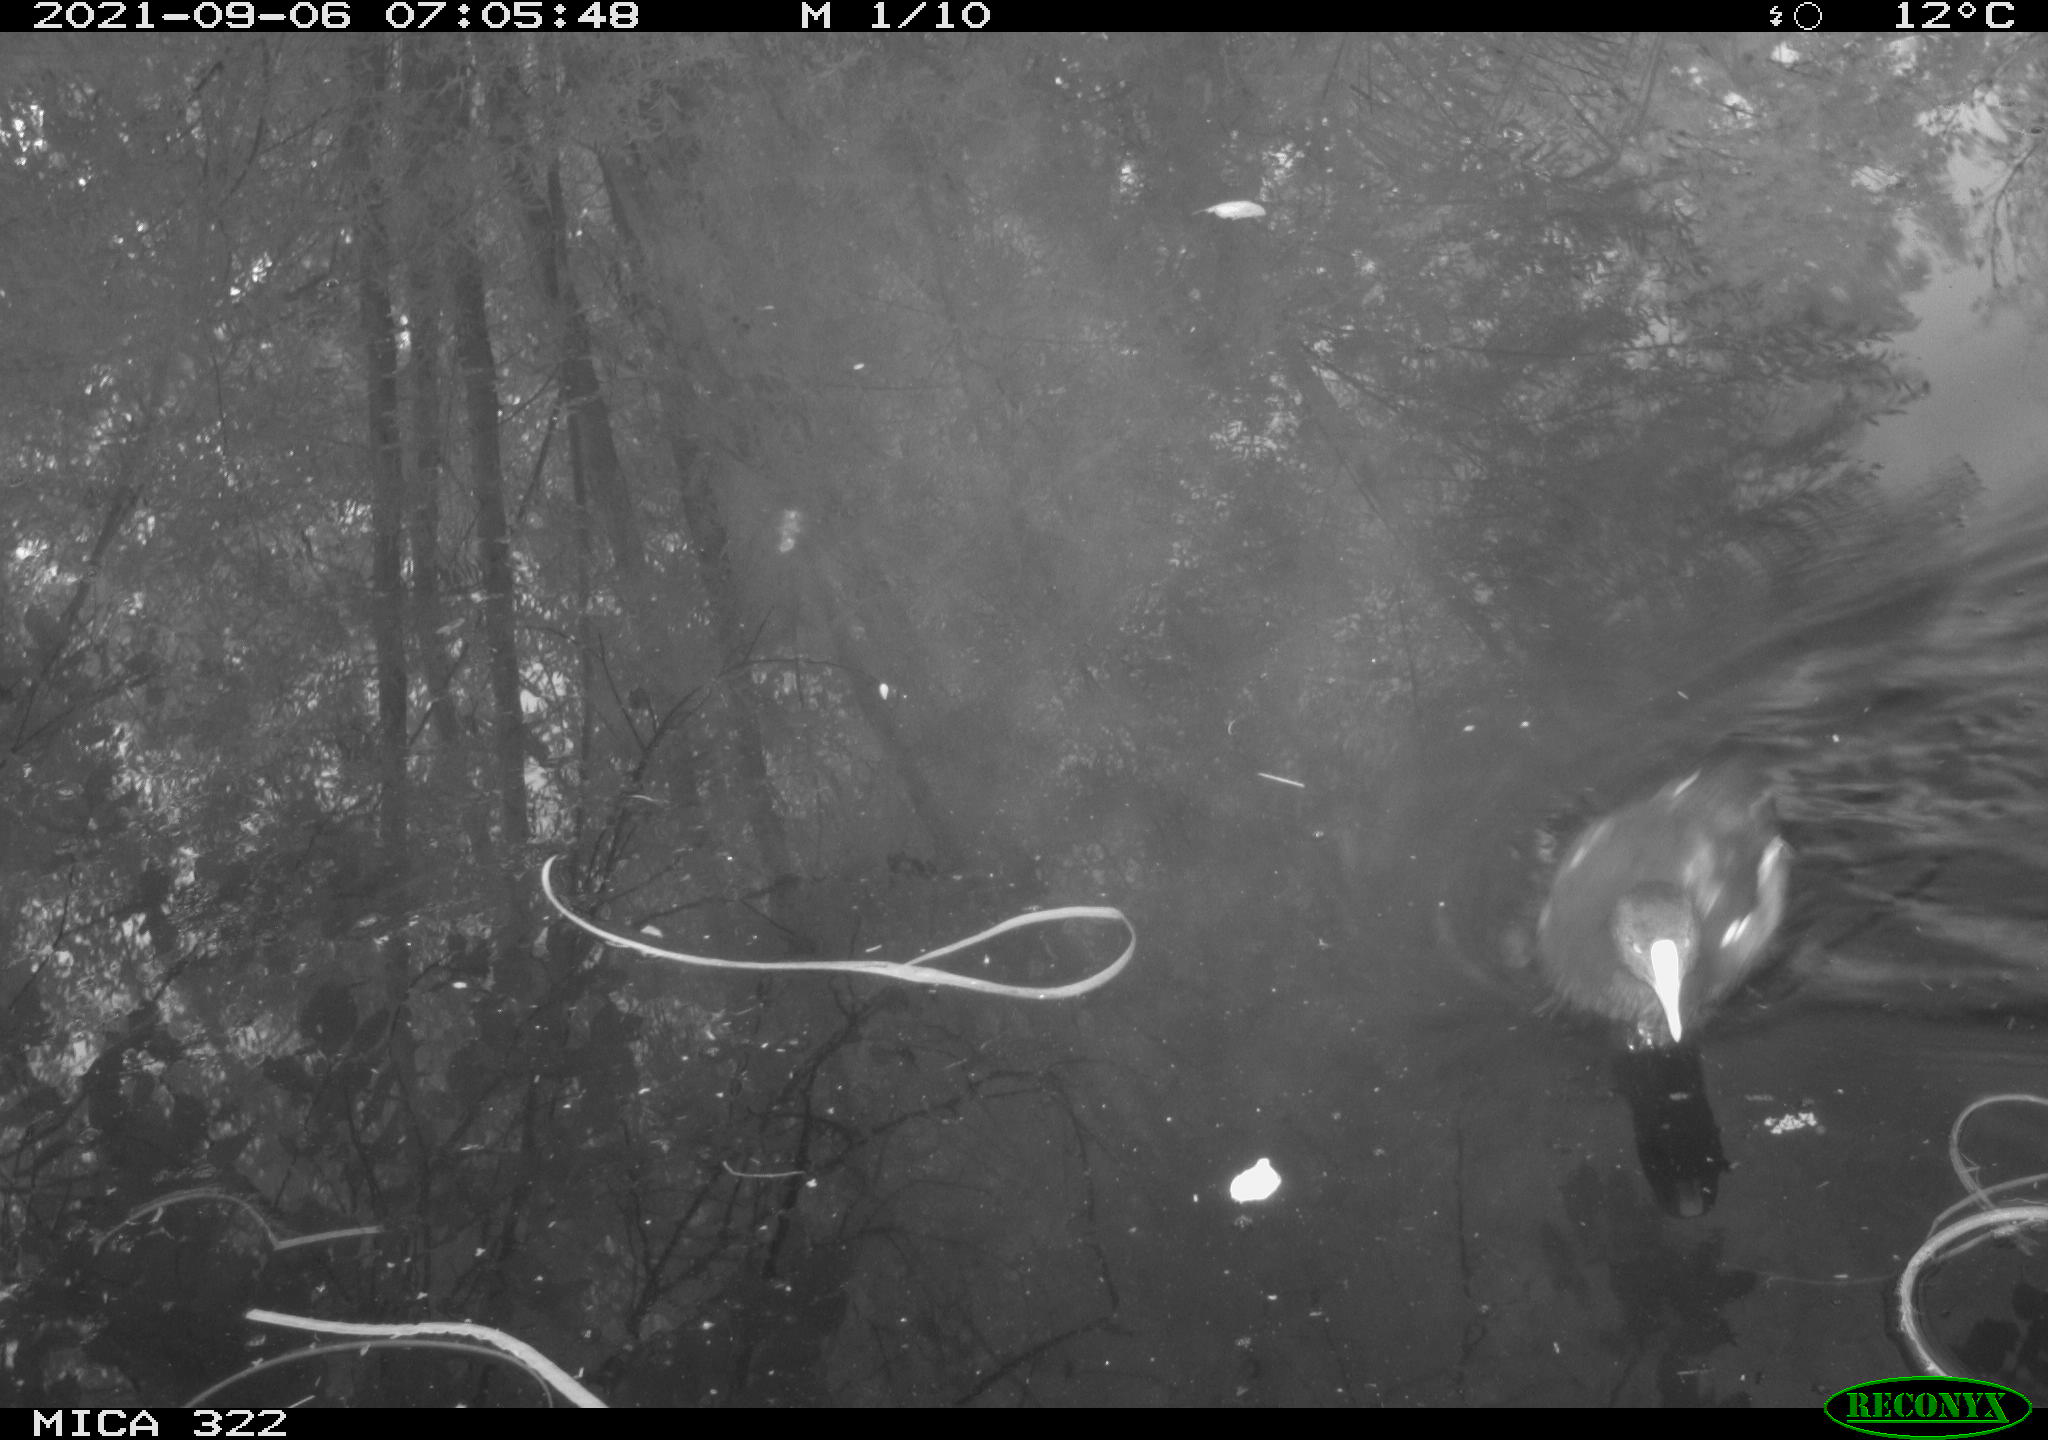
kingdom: Animalia
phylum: Chordata
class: Aves
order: Gruiformes
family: Rallidae
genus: Gallinula
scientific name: Gallinula chloropus
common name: Common moorhen
